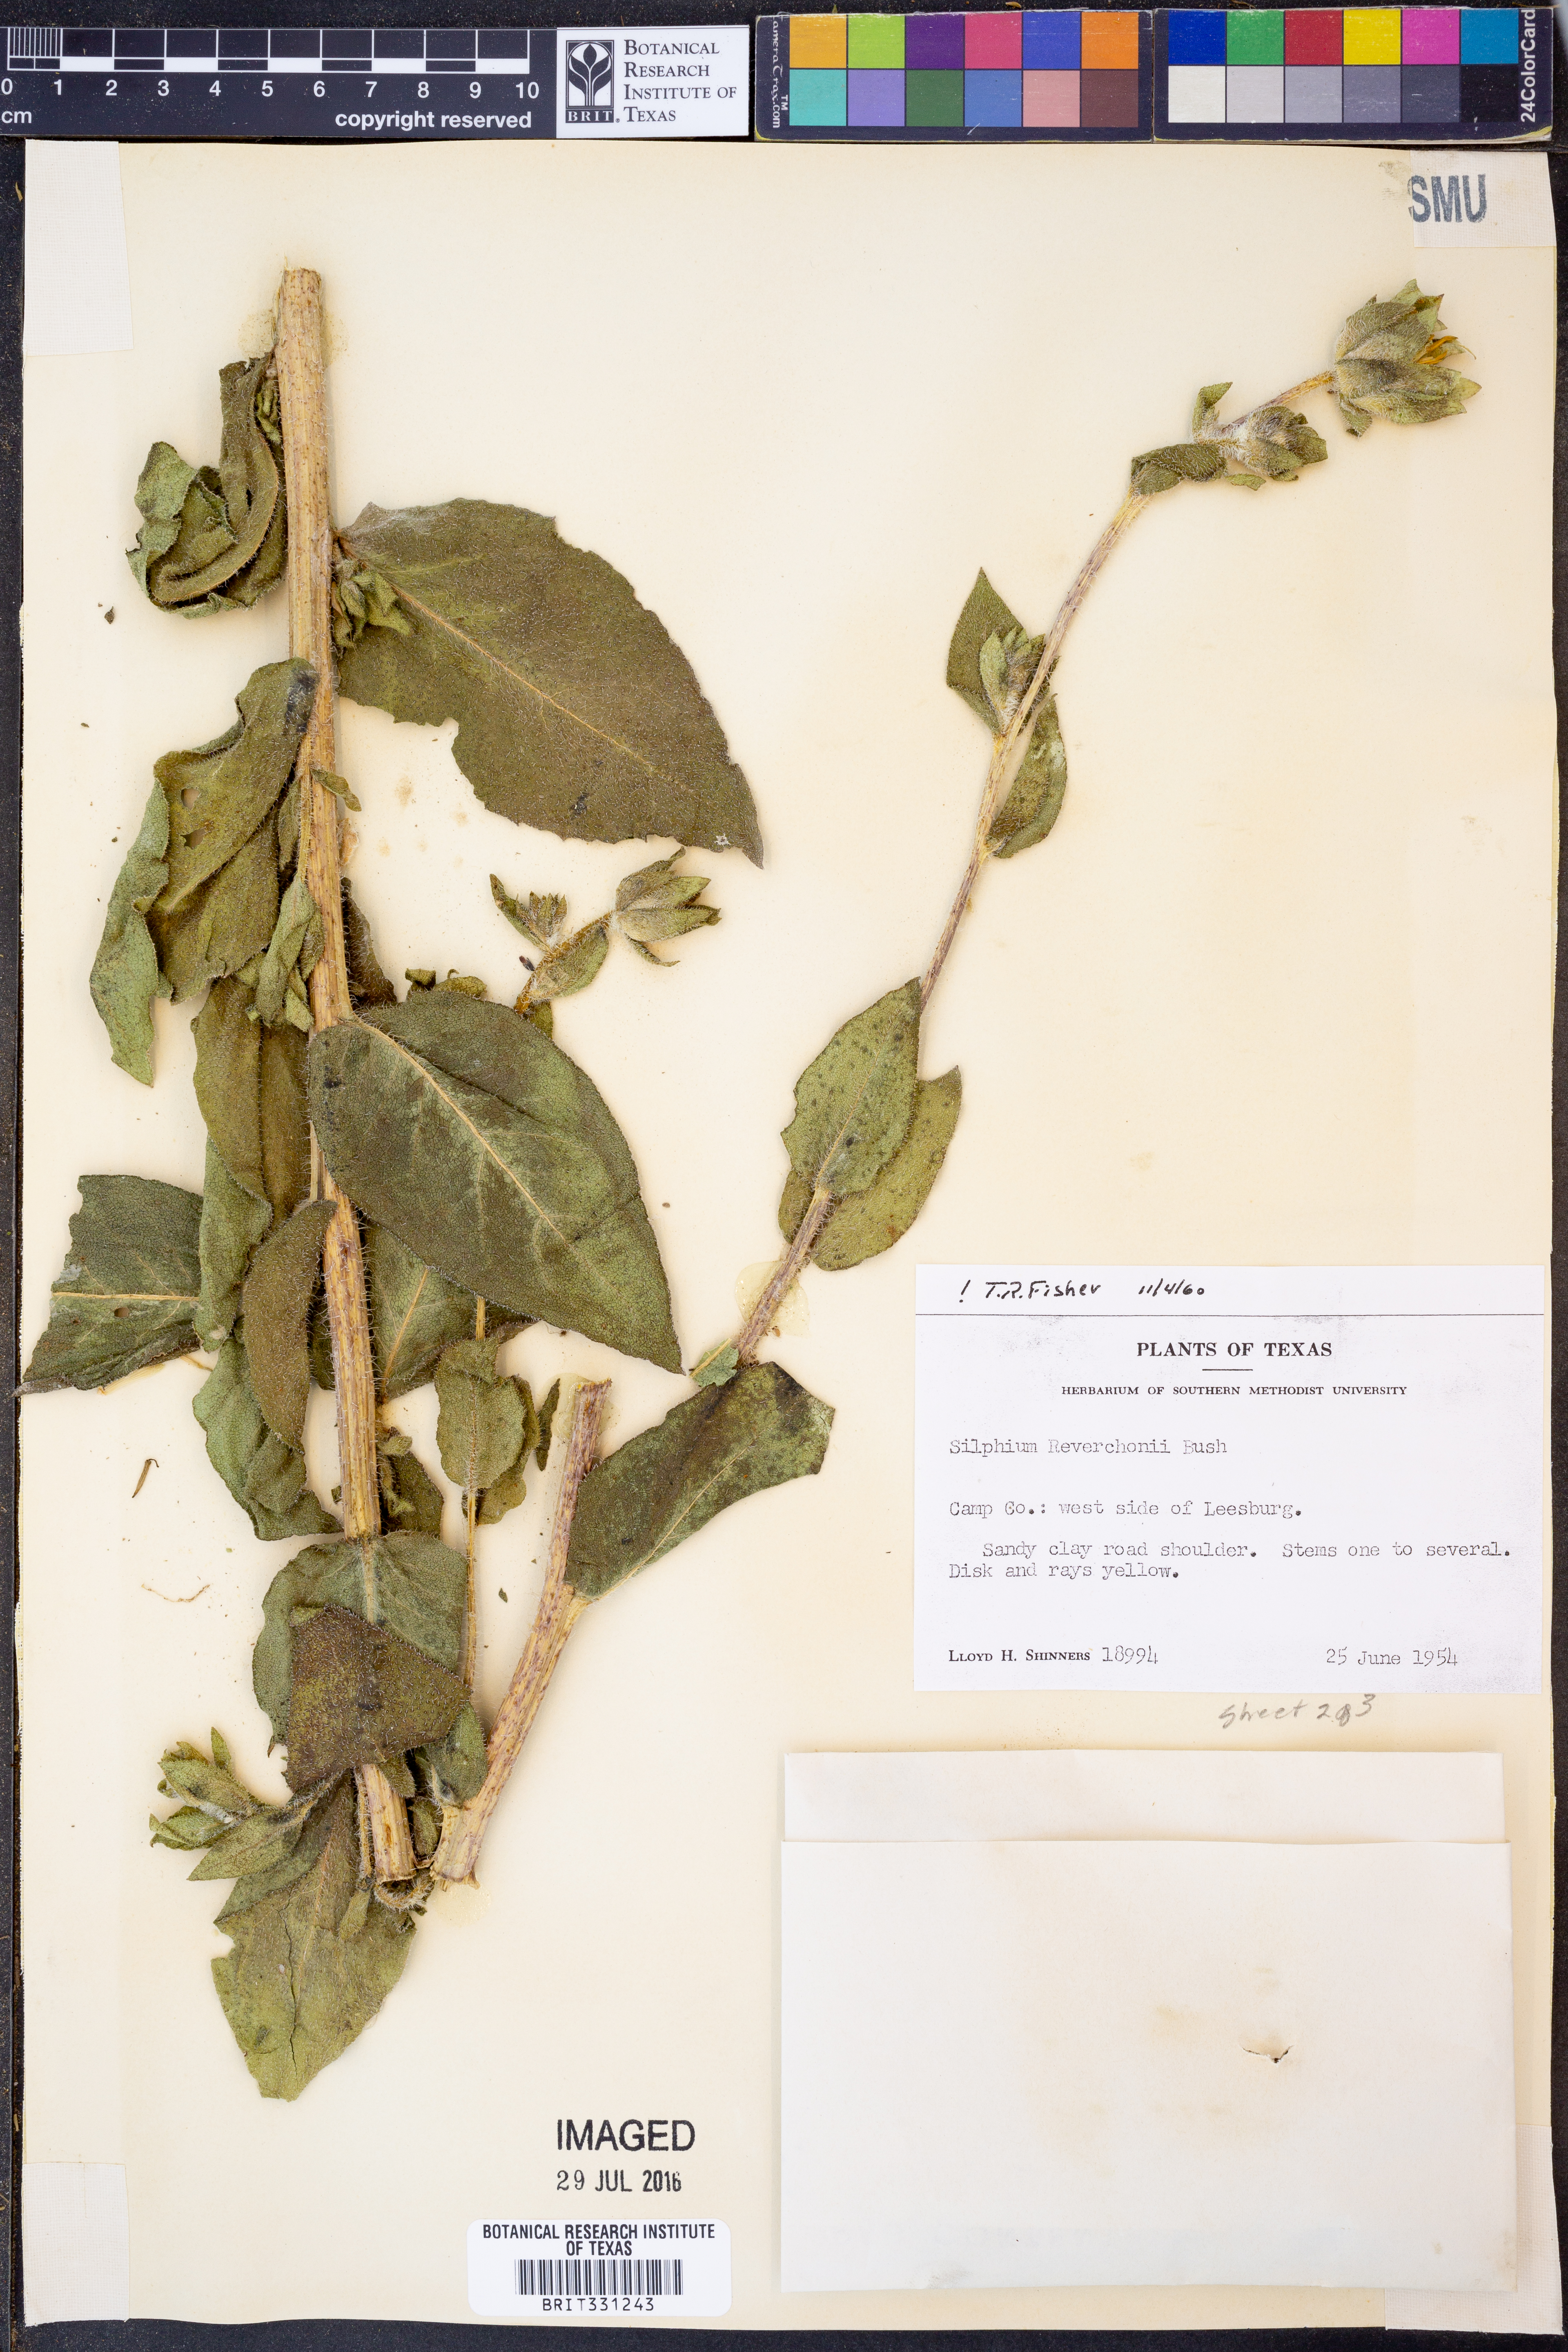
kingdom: Plantae
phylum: Tracheophyta
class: Magnoliopsida
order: Asterales
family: Asteraceae
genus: Silphium
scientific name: Silphium radula
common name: Roughleaf rosinweed
